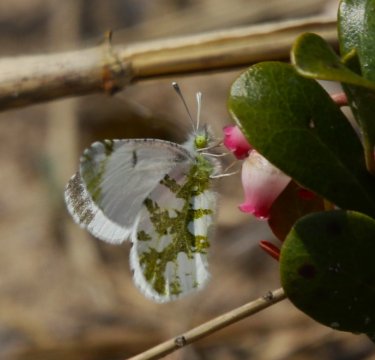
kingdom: Animalia
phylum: Arthropoda
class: Insecta
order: Lepidoptera
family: Pieridae
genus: Euchloe
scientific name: Euchloe olympia
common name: Olympia Marble
